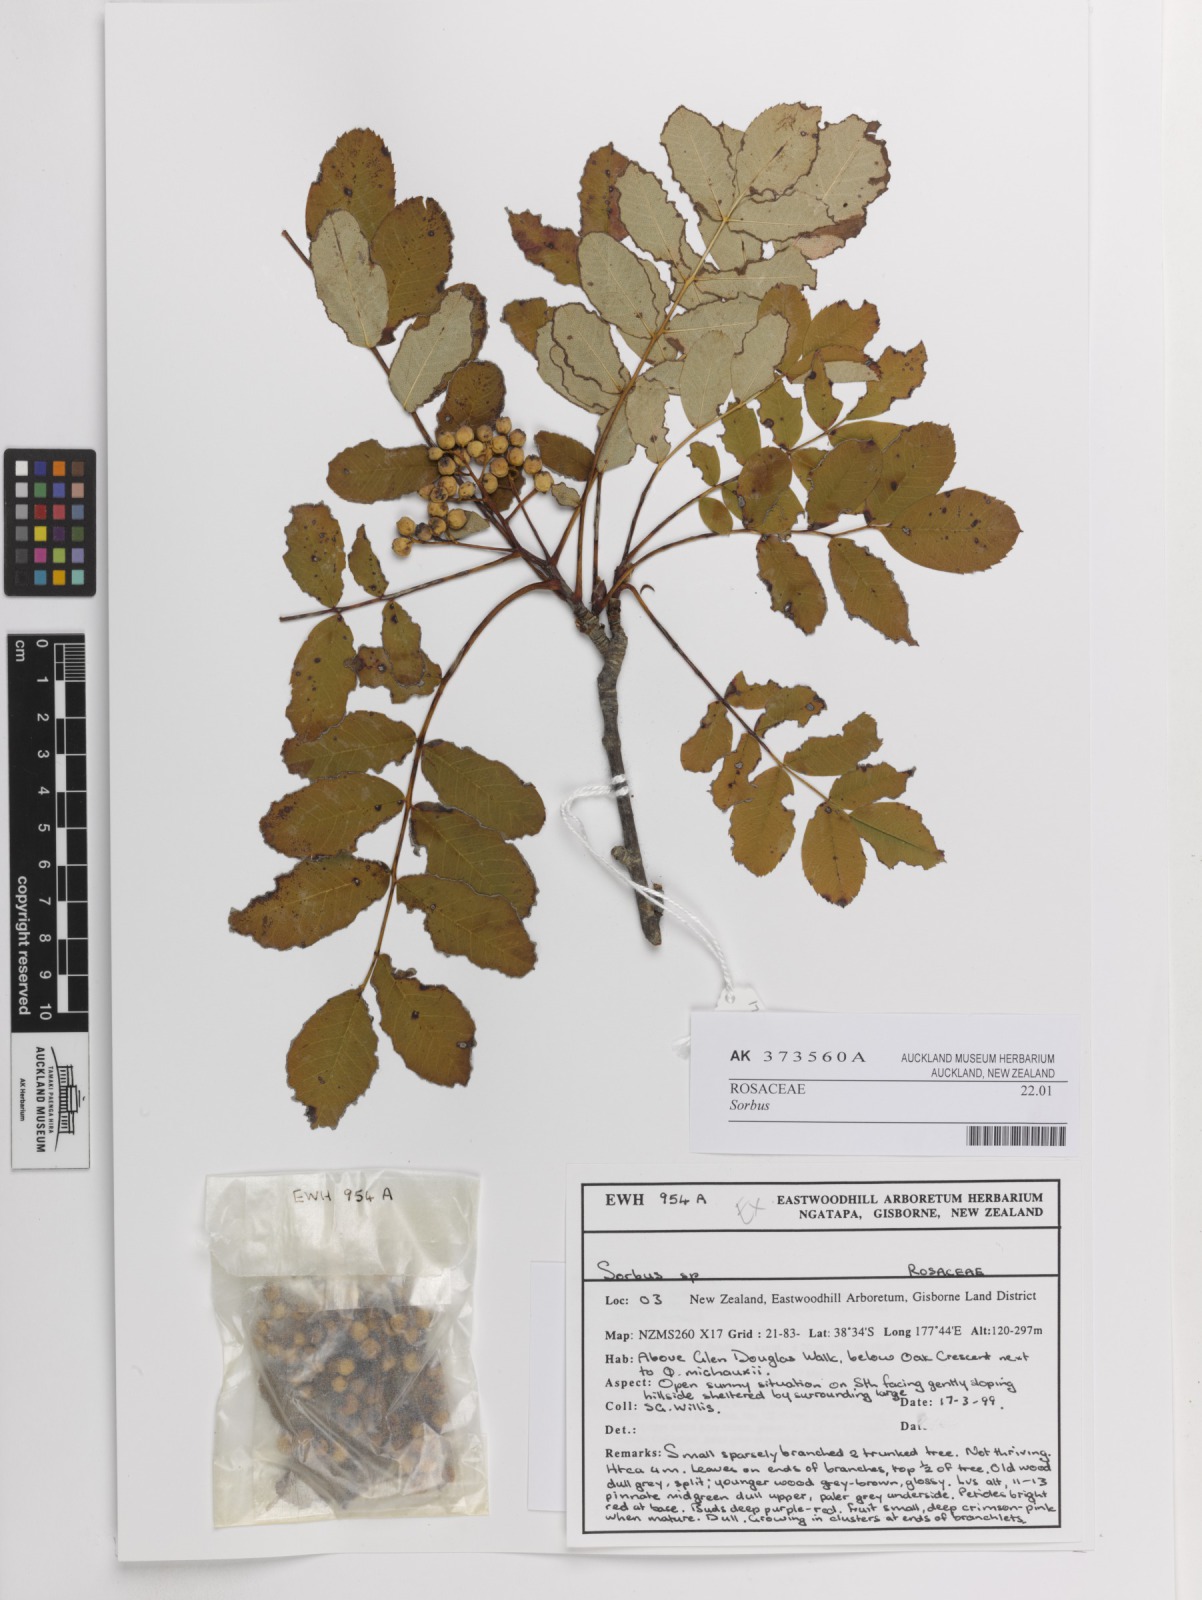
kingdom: Plantae
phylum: Tracheophyta
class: Magnoliopsida
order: Rosales
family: Rosaceae
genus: Sorbus
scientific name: Sorbus
